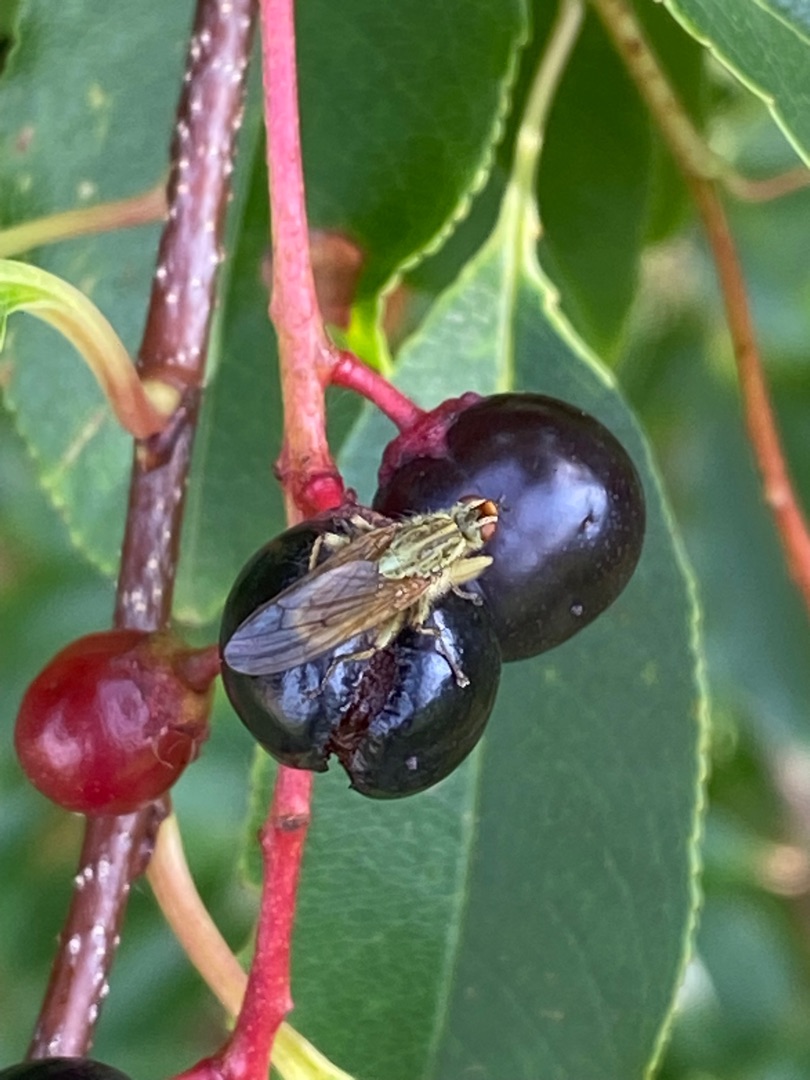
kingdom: Animalia
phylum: Arthropoda
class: Insecta
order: Diptera
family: Scathophagidae
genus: Scathophaga
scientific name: Scathophaga stercoraria
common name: Almindelig gødningsflue
